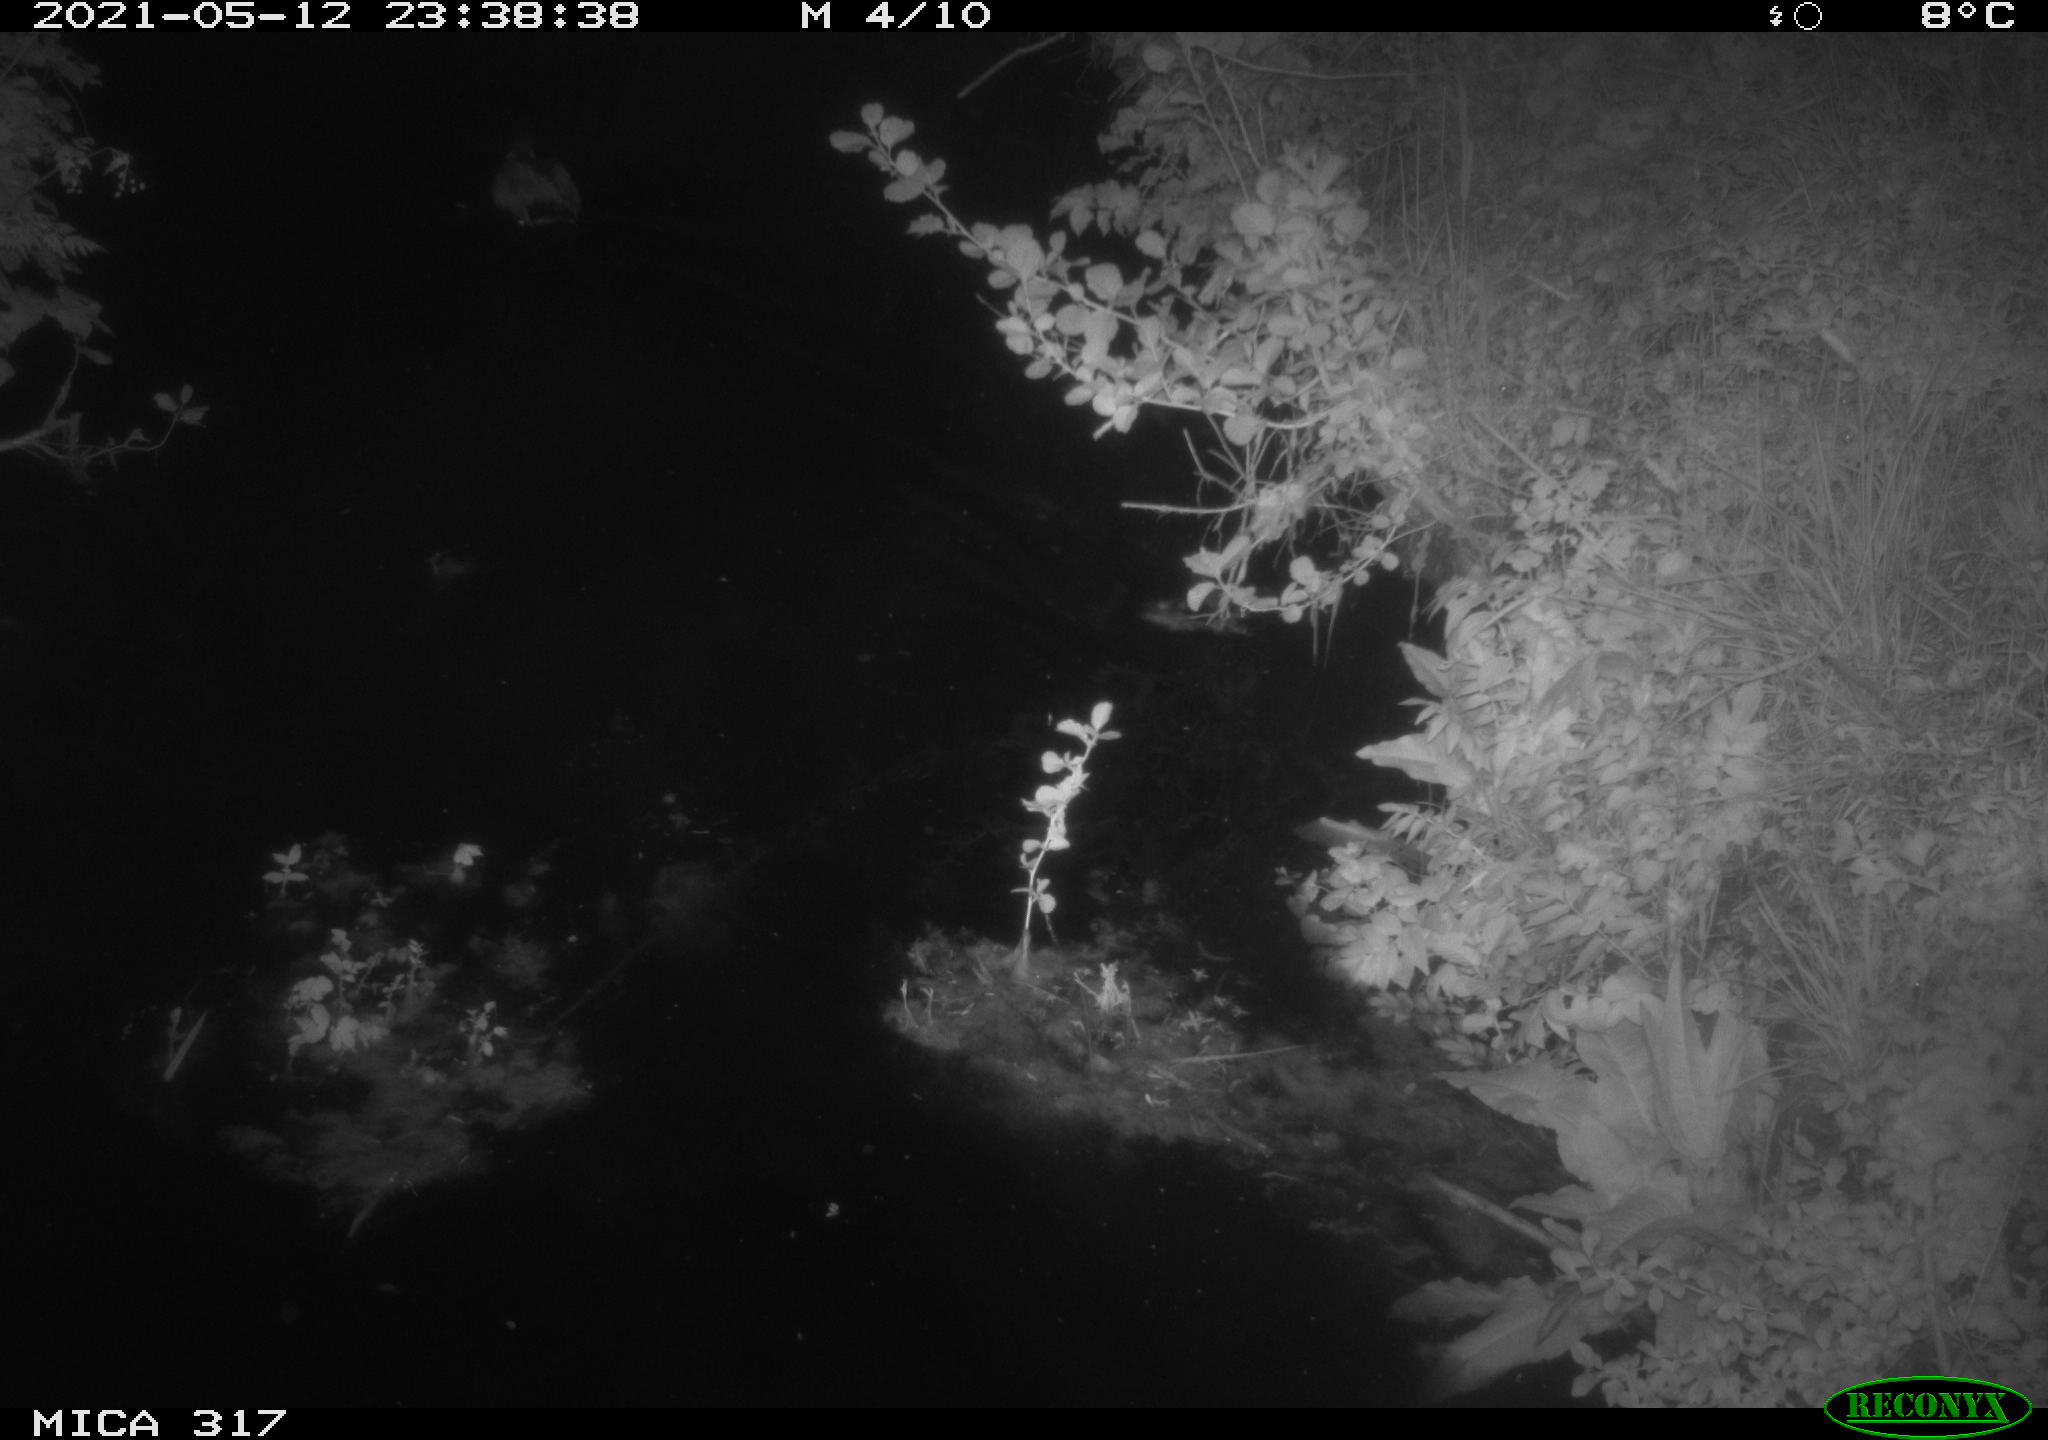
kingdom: Animalia
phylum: Chordata
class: Aves
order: Anseriformes
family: Anatidae
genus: Anas
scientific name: Anas
